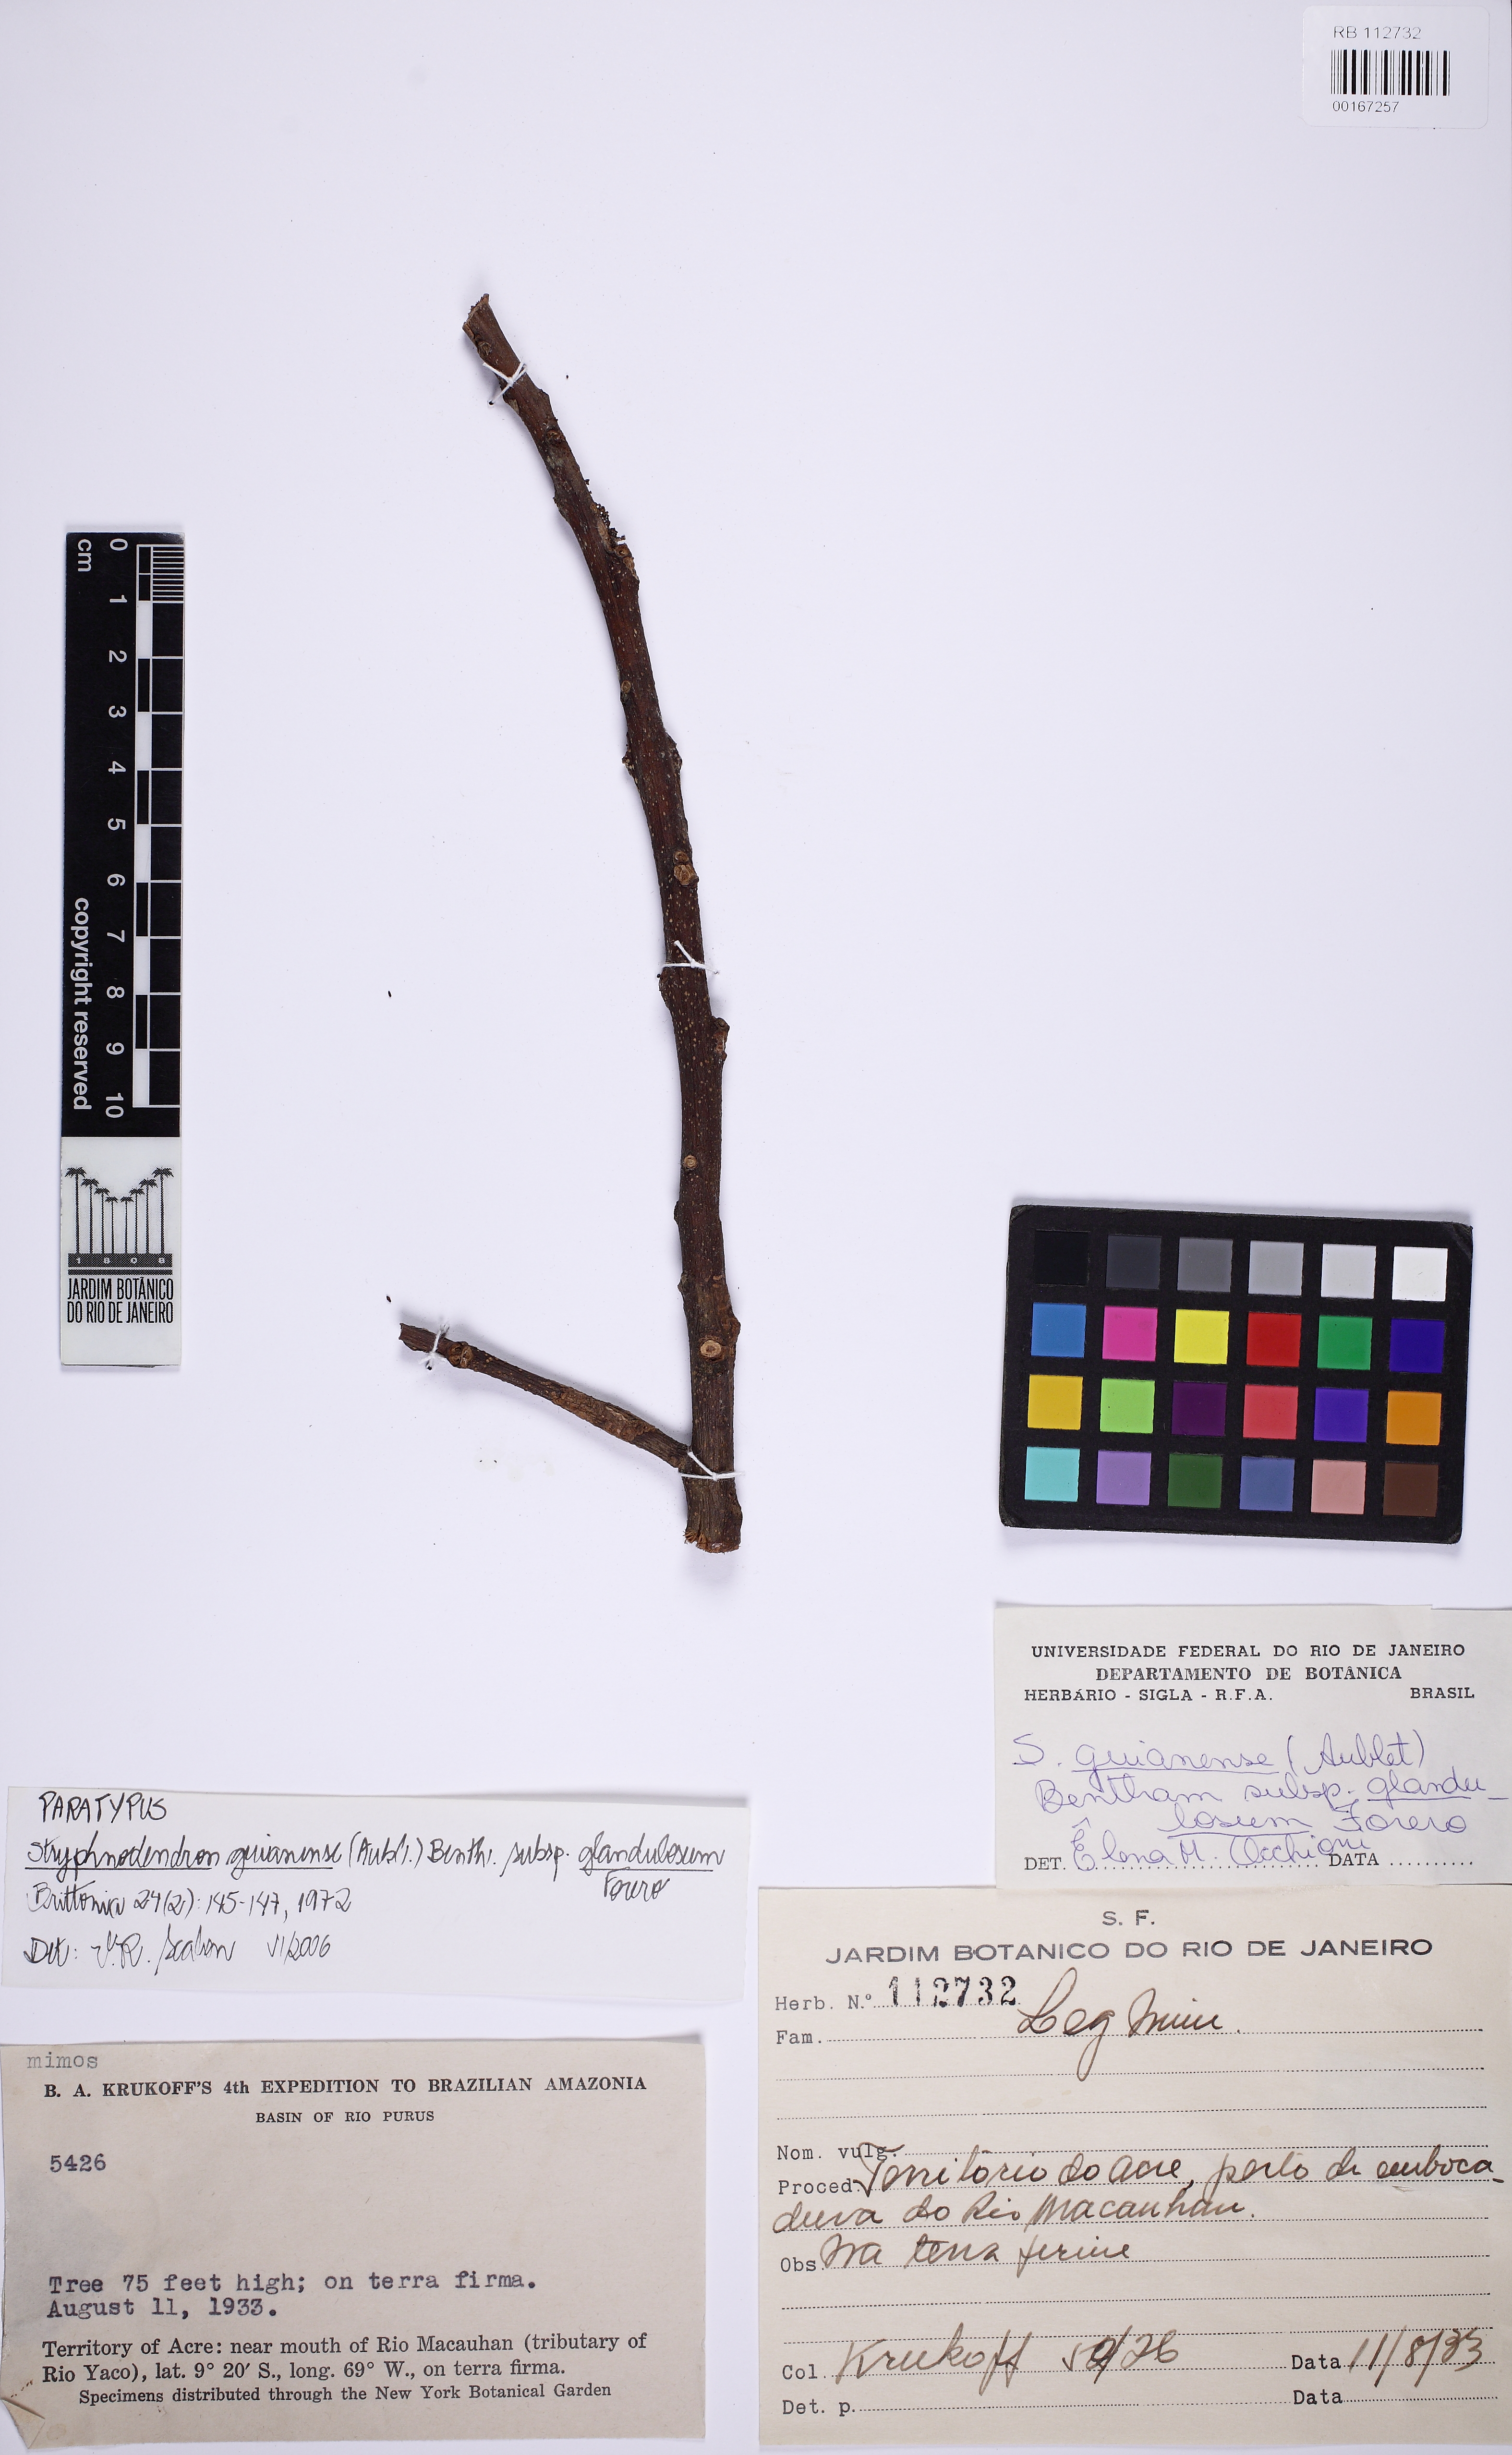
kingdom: Plantae
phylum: Tracheophyta
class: Magnoliopsida
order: Fabales
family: Fabaceae
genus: Stryphnodendron
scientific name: Stryphnodendron guianense
